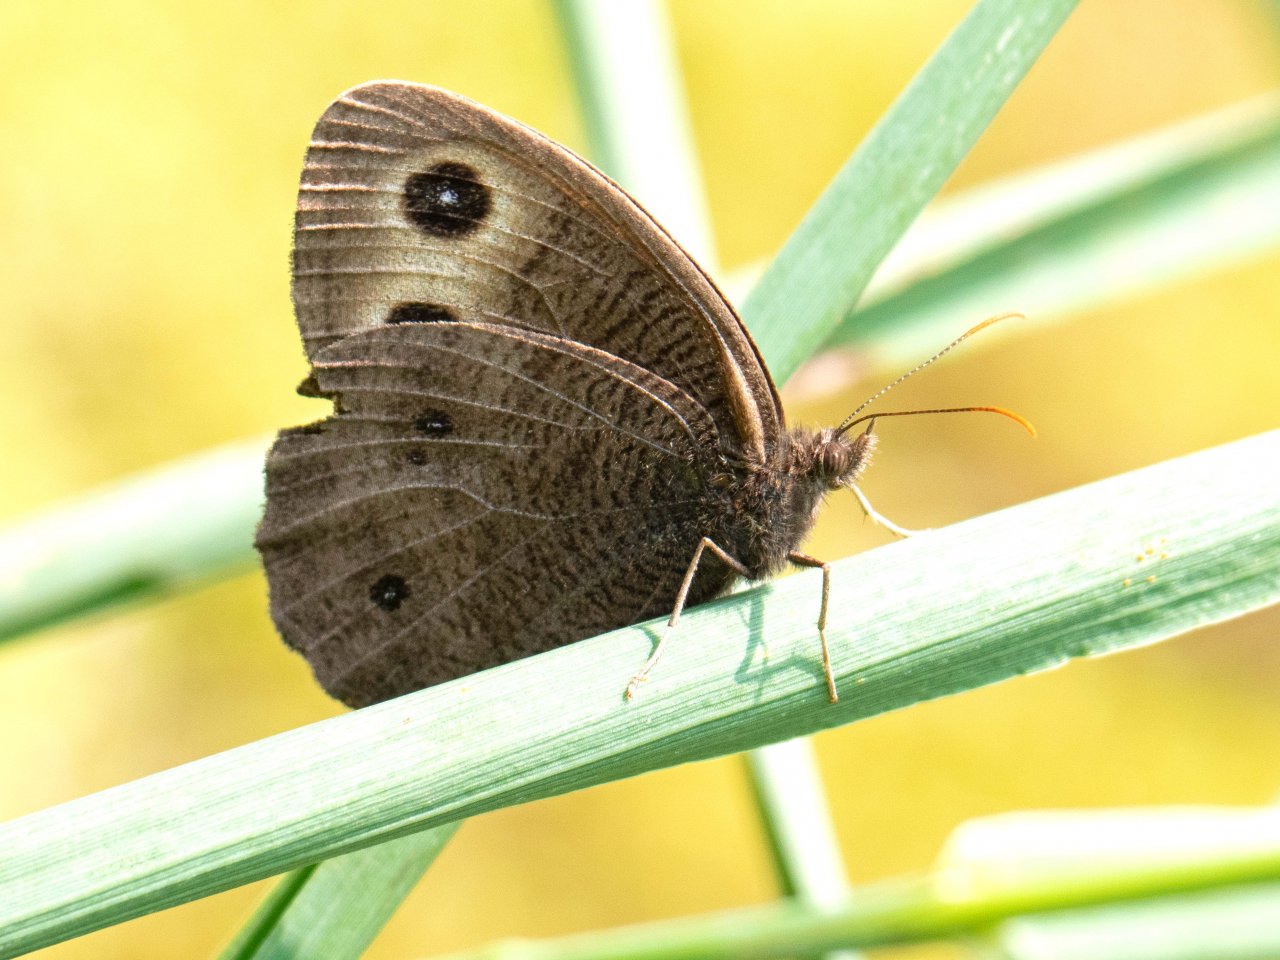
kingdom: Animalia
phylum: Arthropoda
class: Insecta
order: Lepidoptera
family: Nymphalidae
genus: Cercyonis
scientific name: Cercyonis pegala
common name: Common Wood-Nymph
